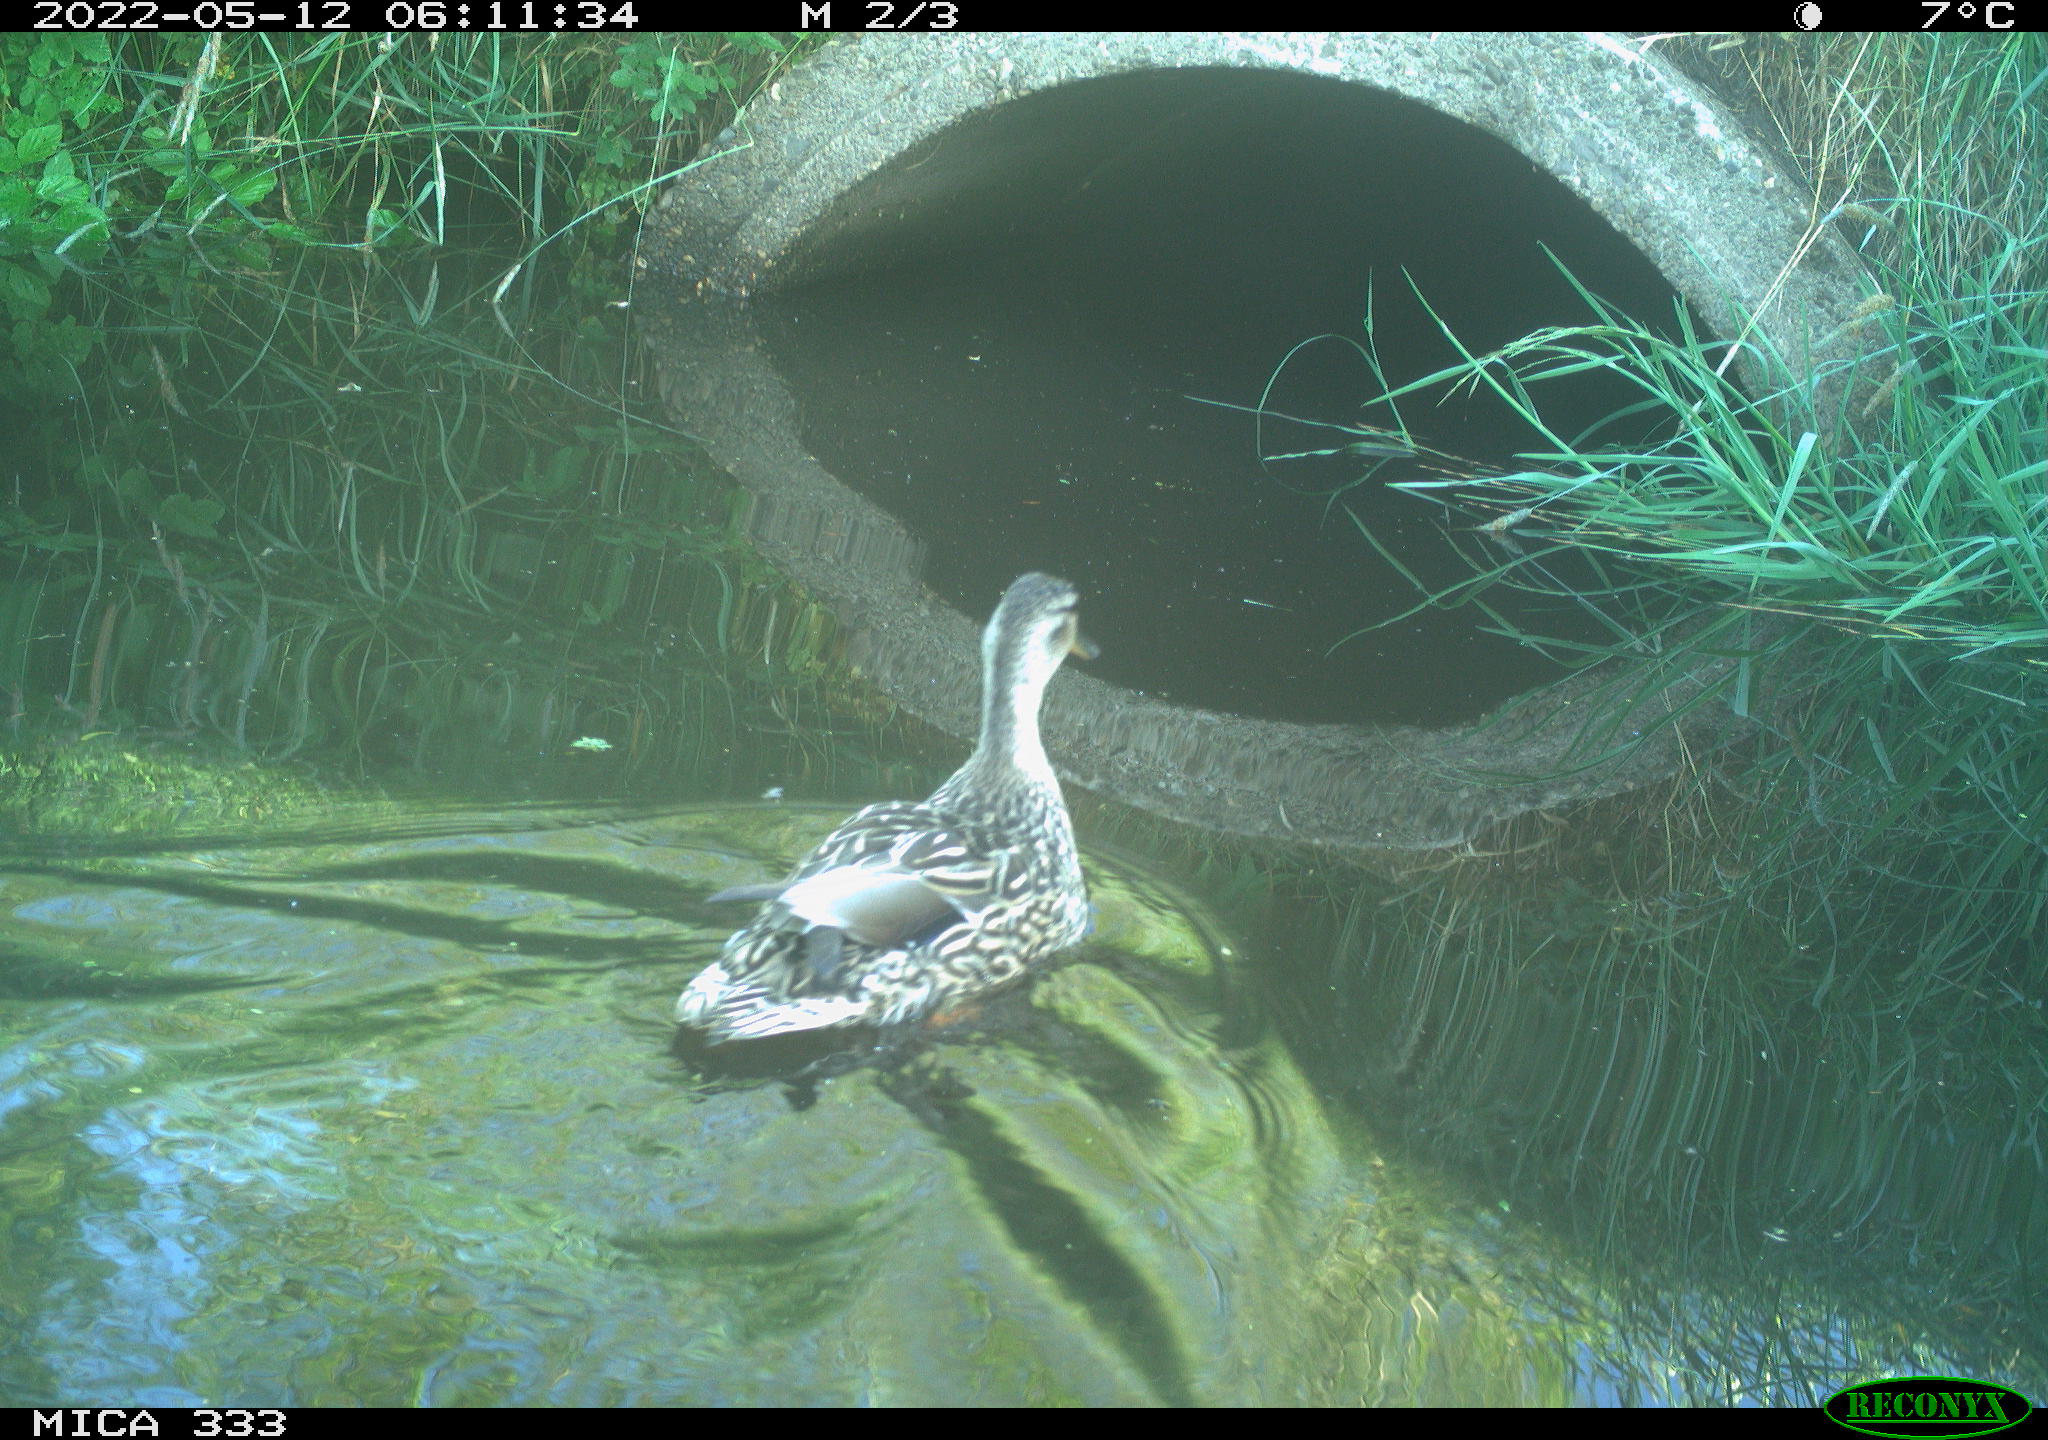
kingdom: Animalia
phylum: Chordata
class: Aves
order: Anseriformes
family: Anatidae
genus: Anas
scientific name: Anas platyrhynchos
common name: Mallard
